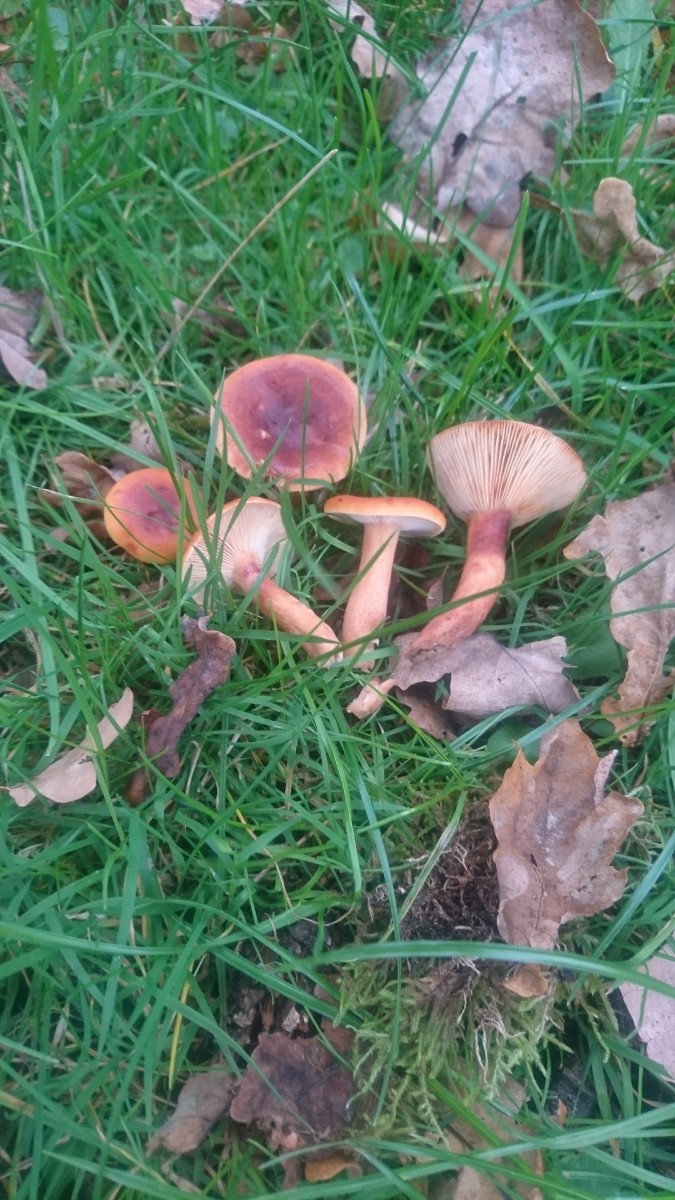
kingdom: Fungi
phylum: Basidiomycota
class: Agaricomycetes
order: Russulales
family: Russulaceae
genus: Lactarius
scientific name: Lactarius fulvissimus
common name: ræve-mælkehat
